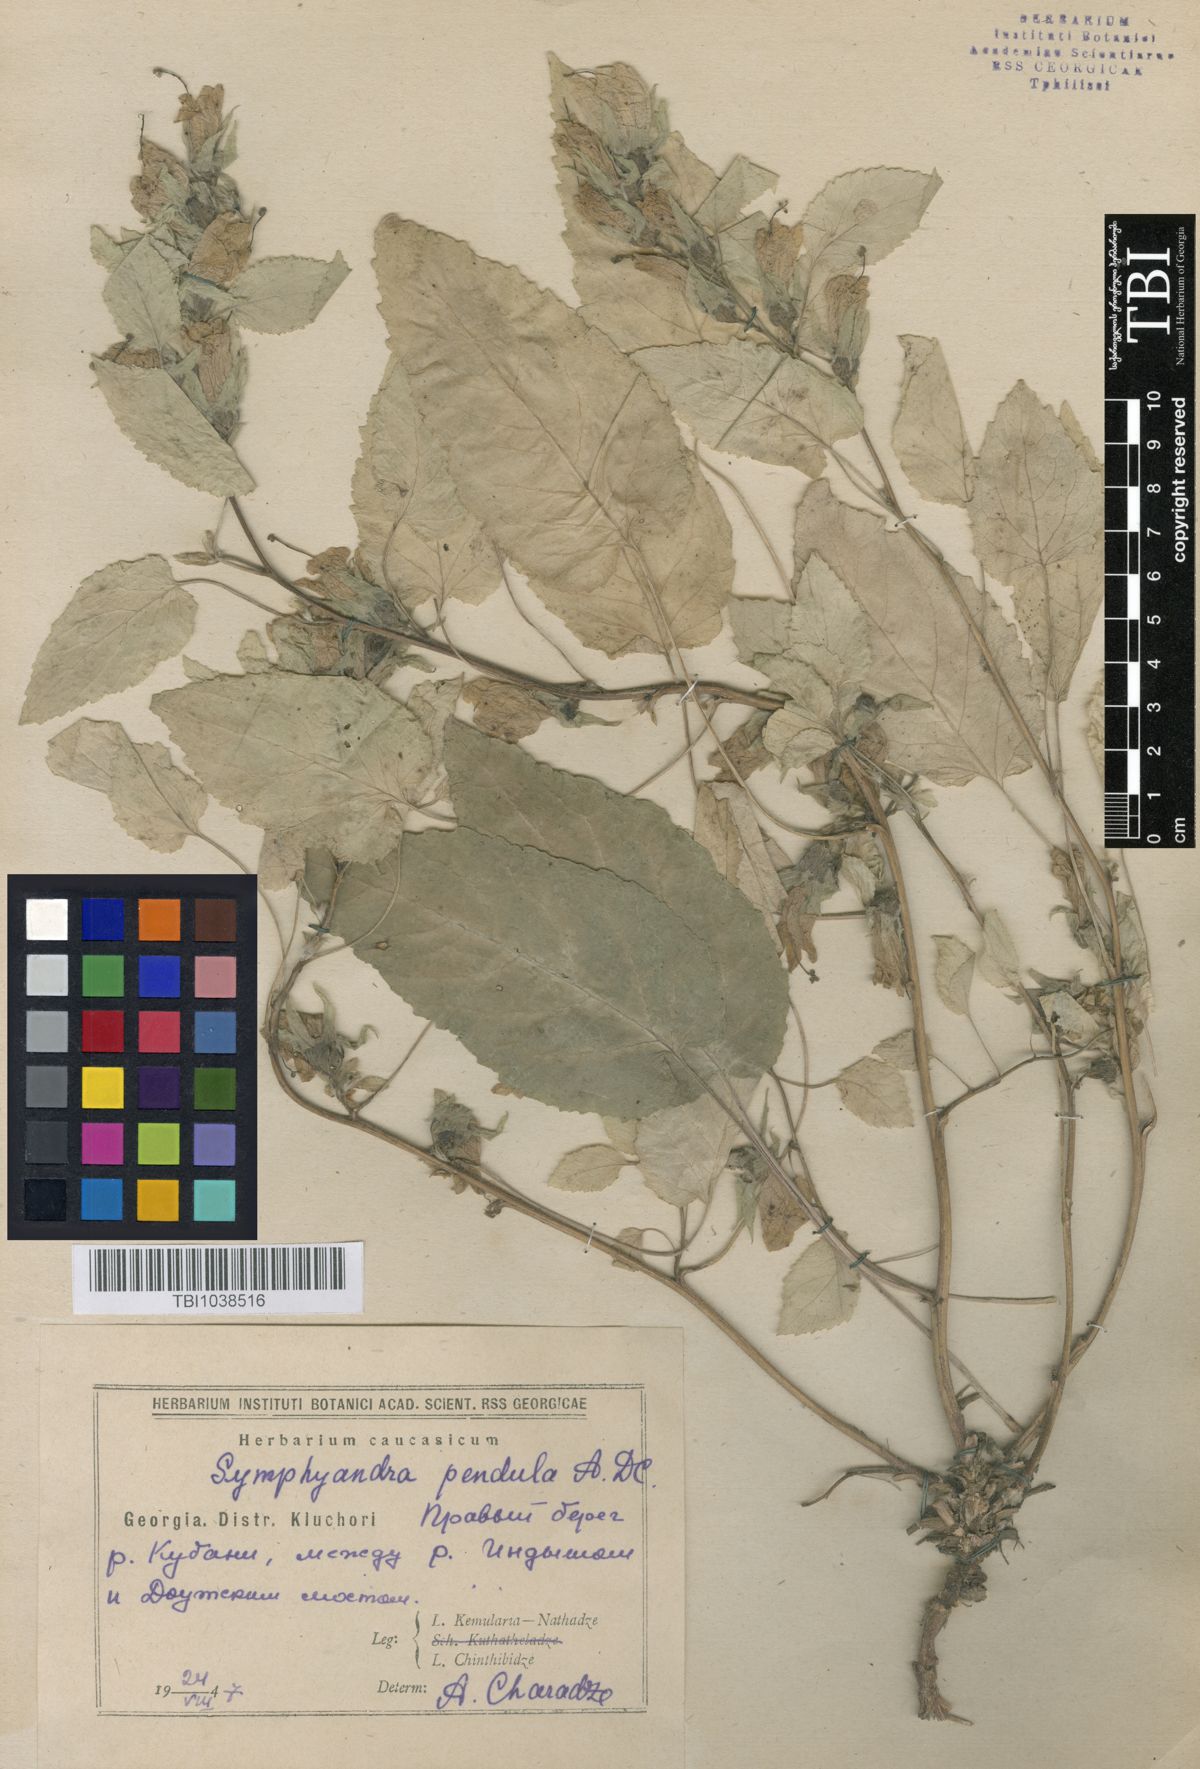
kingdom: Plantae
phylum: Tracheophyta
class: Magnoliopsida
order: Asterales
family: Campanulaceae
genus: Campanula
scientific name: Campanula pendula
